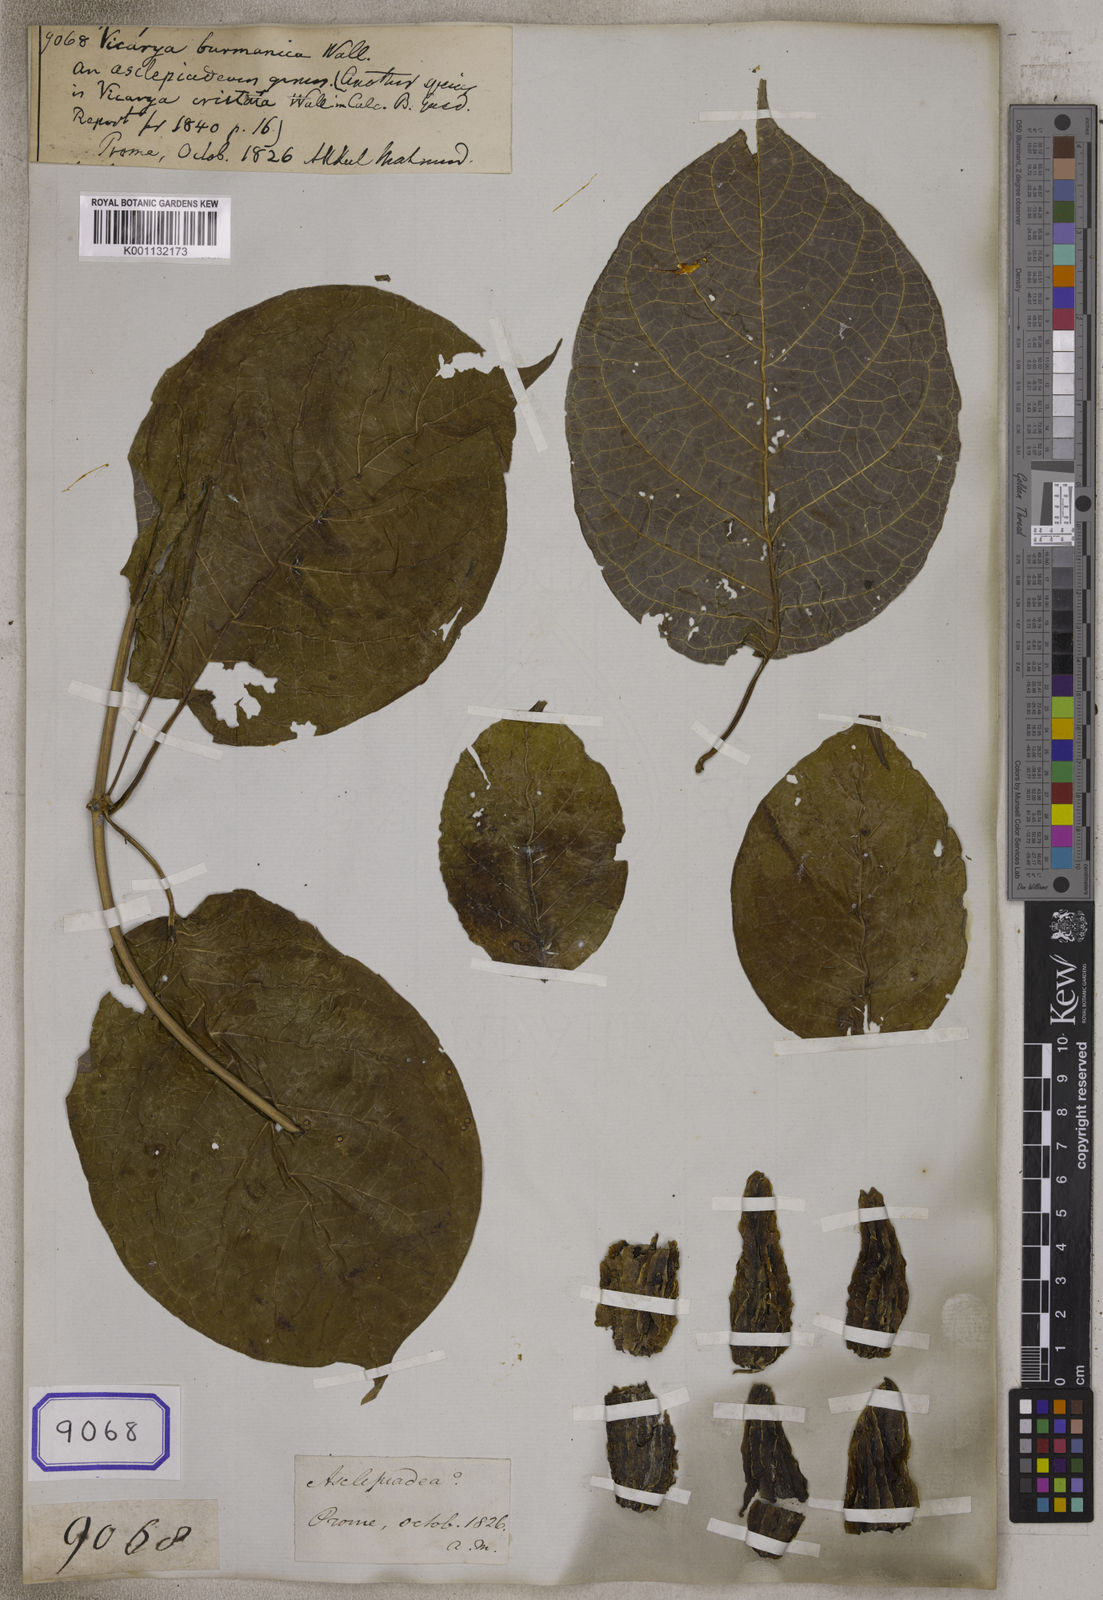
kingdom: Plantae
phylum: Tracheophyta
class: Magnoliopsida
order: Malvales
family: Malvaceae
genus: Vicarya
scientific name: Vicarya
